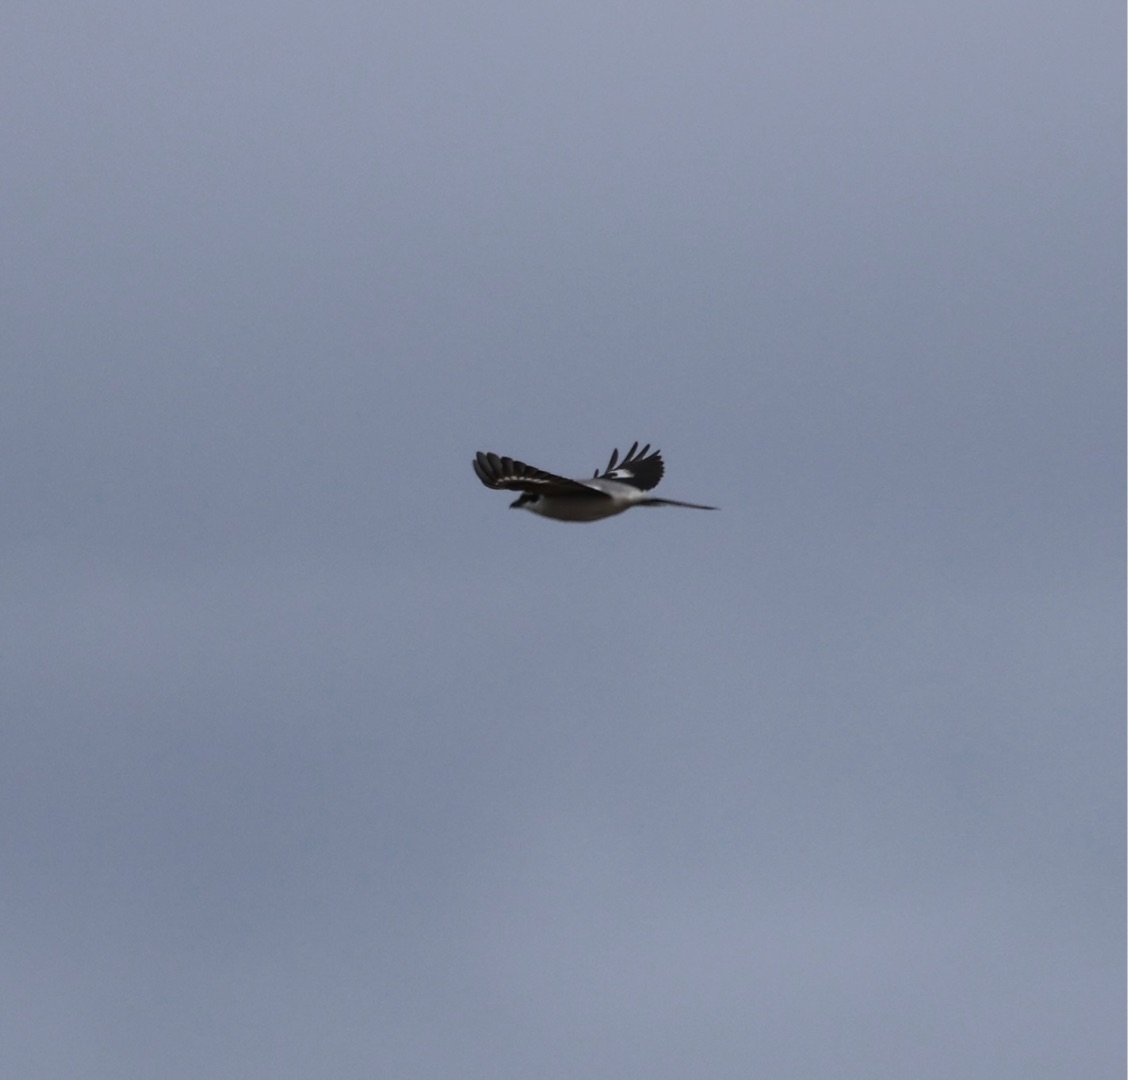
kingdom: Animalia
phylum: Chordata
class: Aves
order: Passeriformes
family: Laniidae
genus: Lanius
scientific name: Lanius excubitor
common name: Stor tornskade
